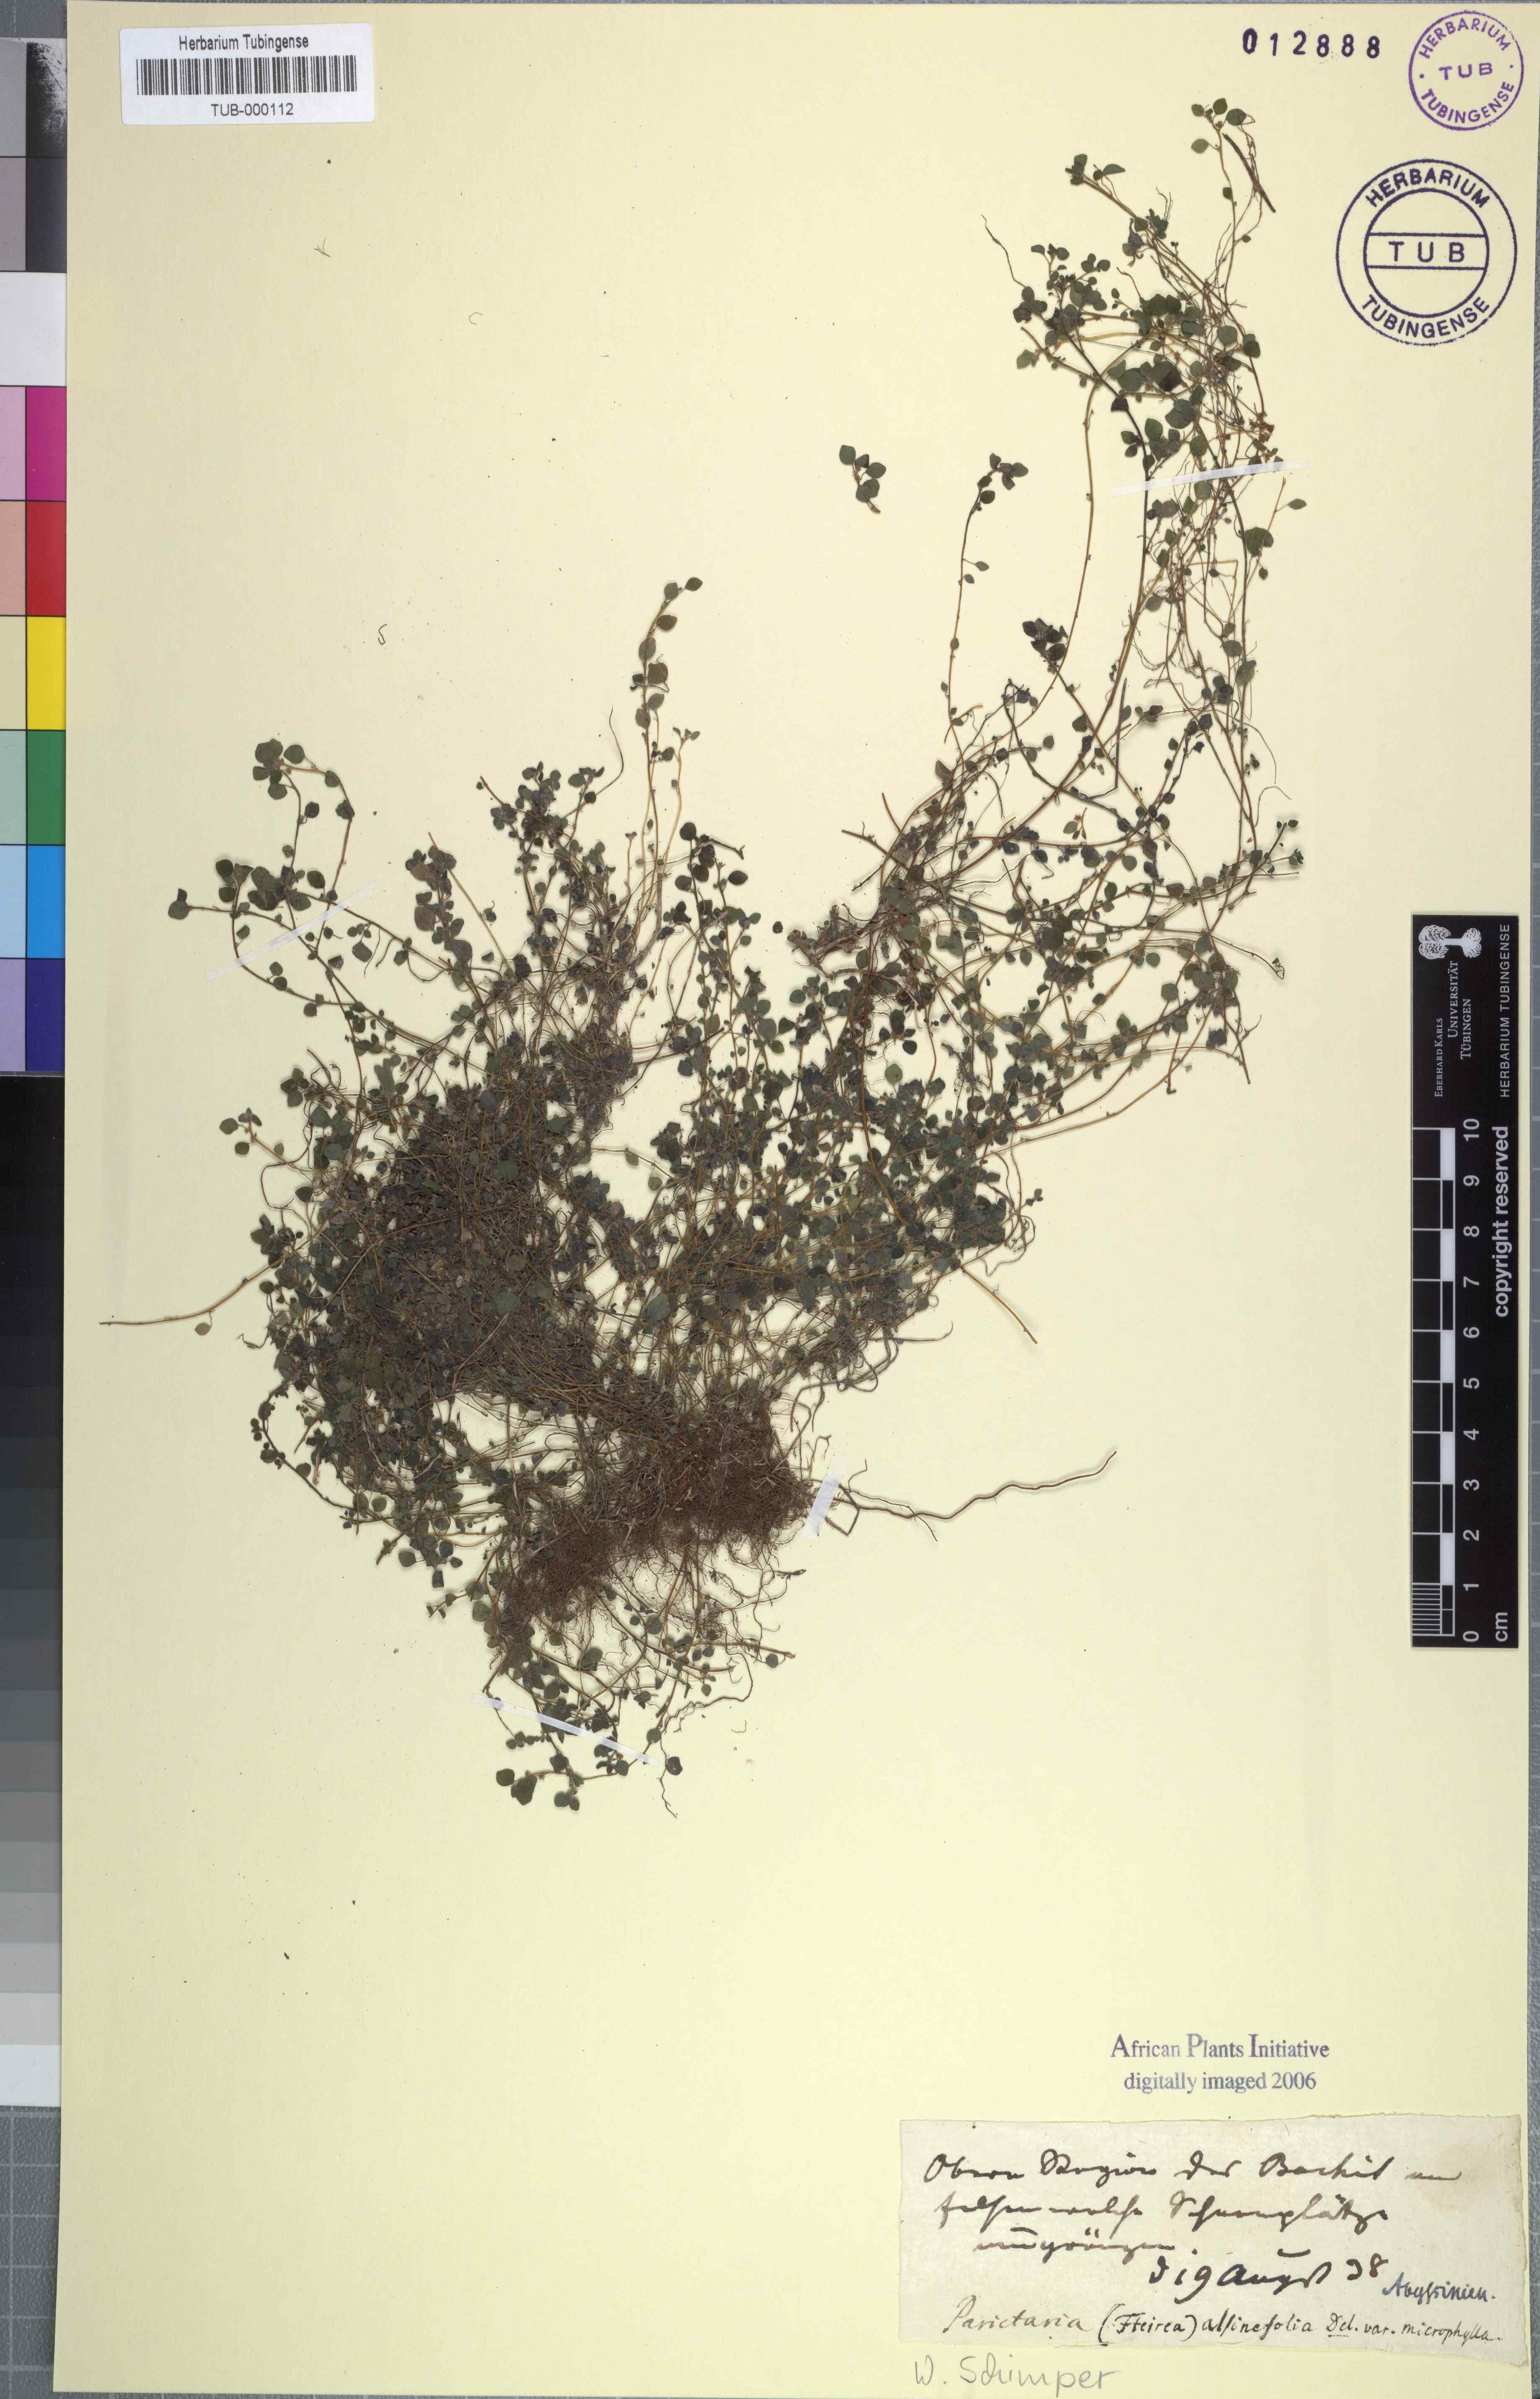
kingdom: Plantae
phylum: Tracheophyta
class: Magnoliopsida
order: Rosales
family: Urticaceae
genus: Parietaria
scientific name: Parietaria alsinefolia
